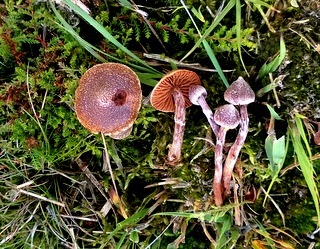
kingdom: Fungi
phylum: Basidiomycota
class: Agaricomycetes
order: Agaricales
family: Cortinariaceae
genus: Cortinarius
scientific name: Cortinarius
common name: pelargonie-slørhat
